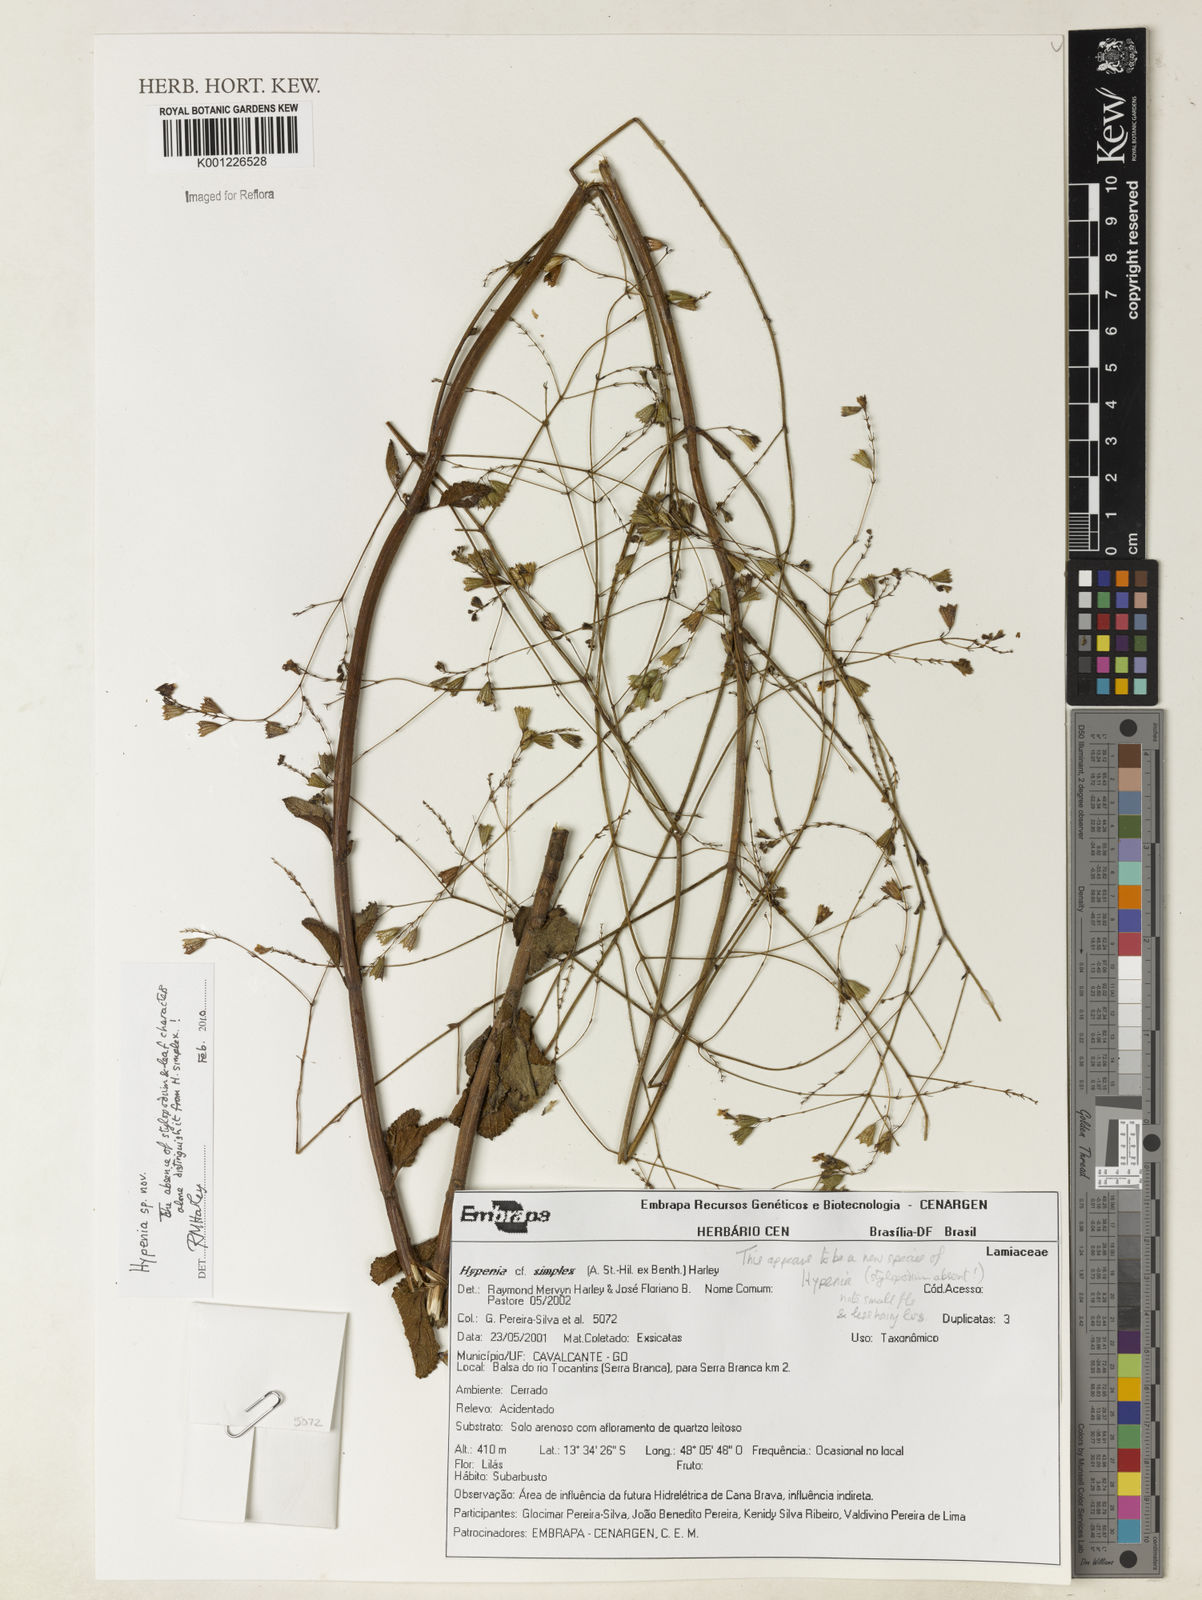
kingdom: Plantae
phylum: Tracheophyta
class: Magnoliopsida
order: Lamiales
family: Lamiaceae
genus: Hypenia
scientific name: Hypenia
